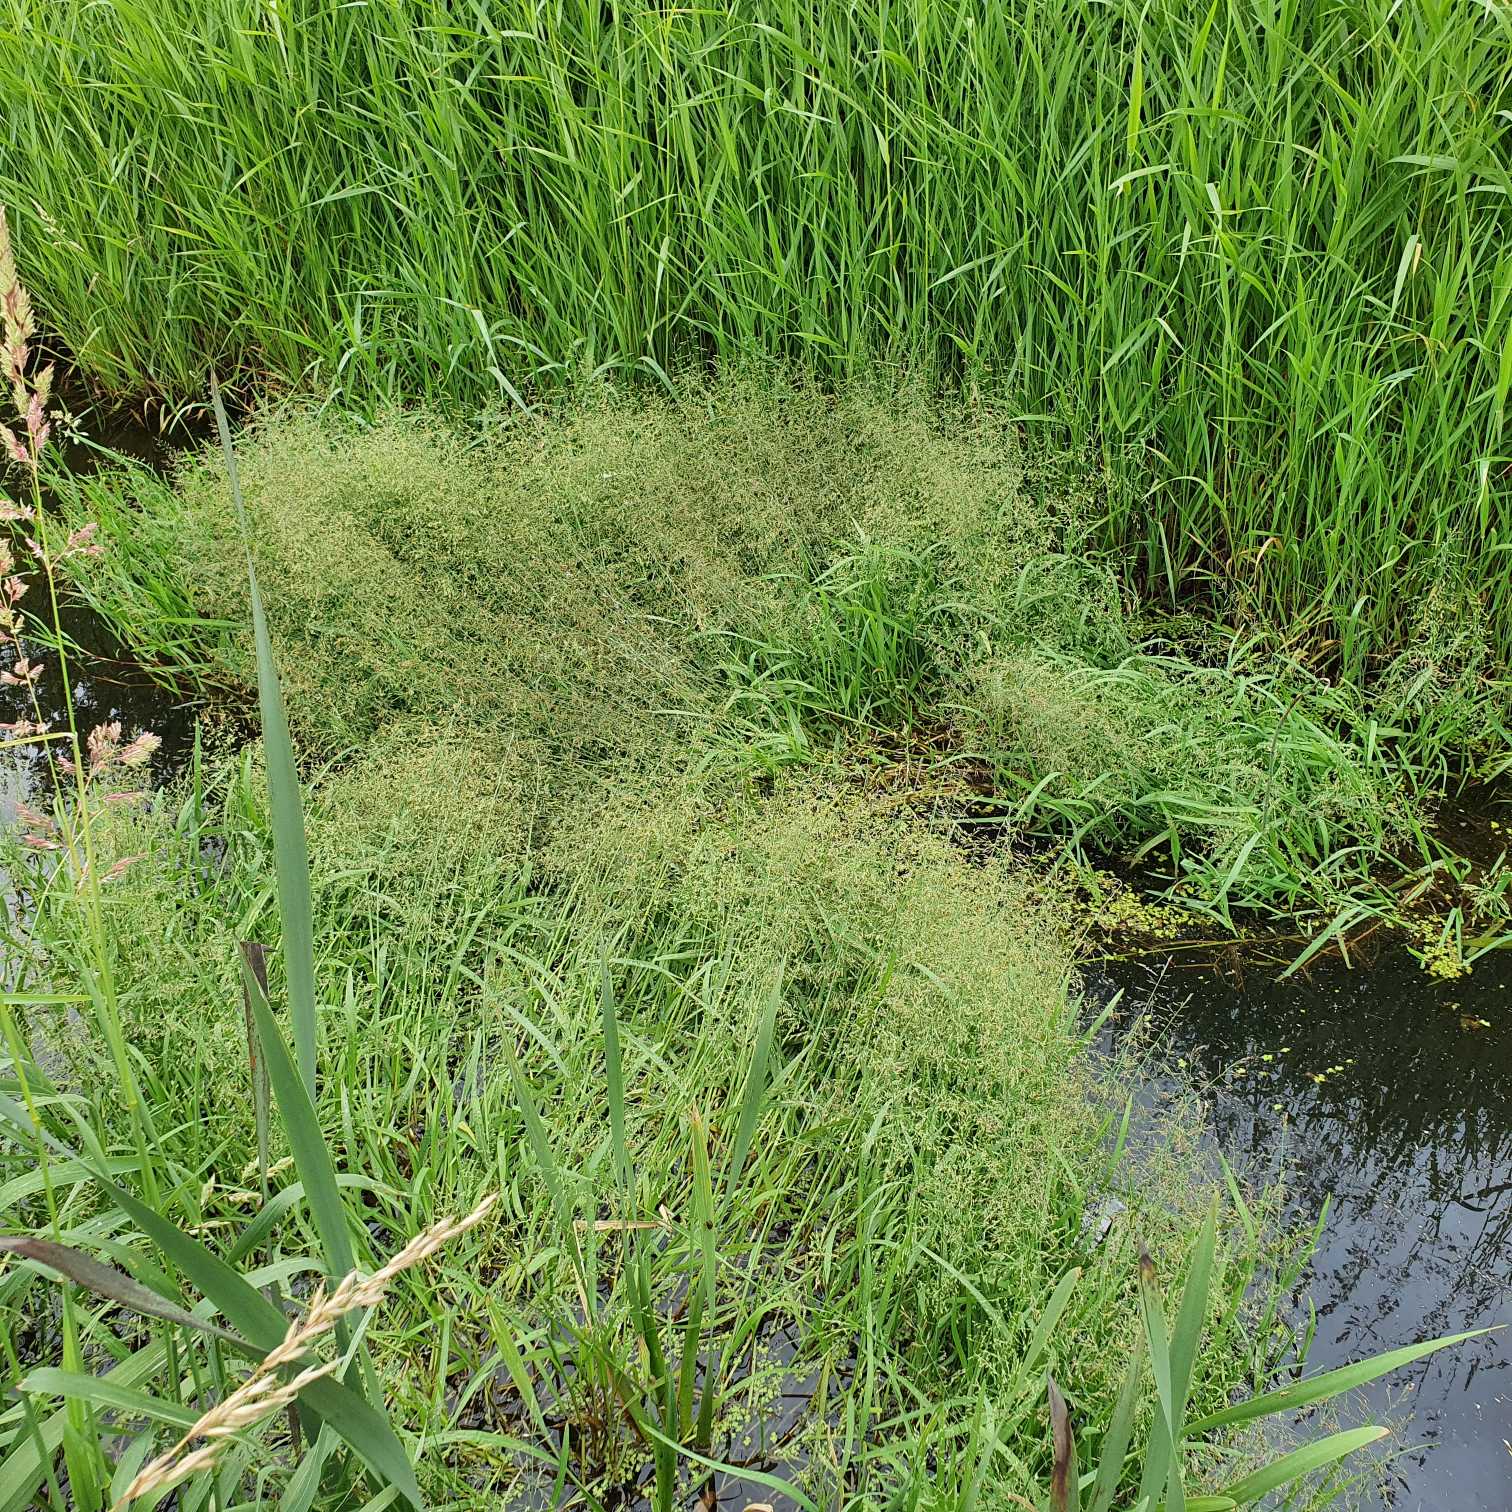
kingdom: Plantae
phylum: Tracheophyta
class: Liliopsida
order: Poales
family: Poaceae
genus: Catabrosa
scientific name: Catabrosa aquatica
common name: Tæppegræs
